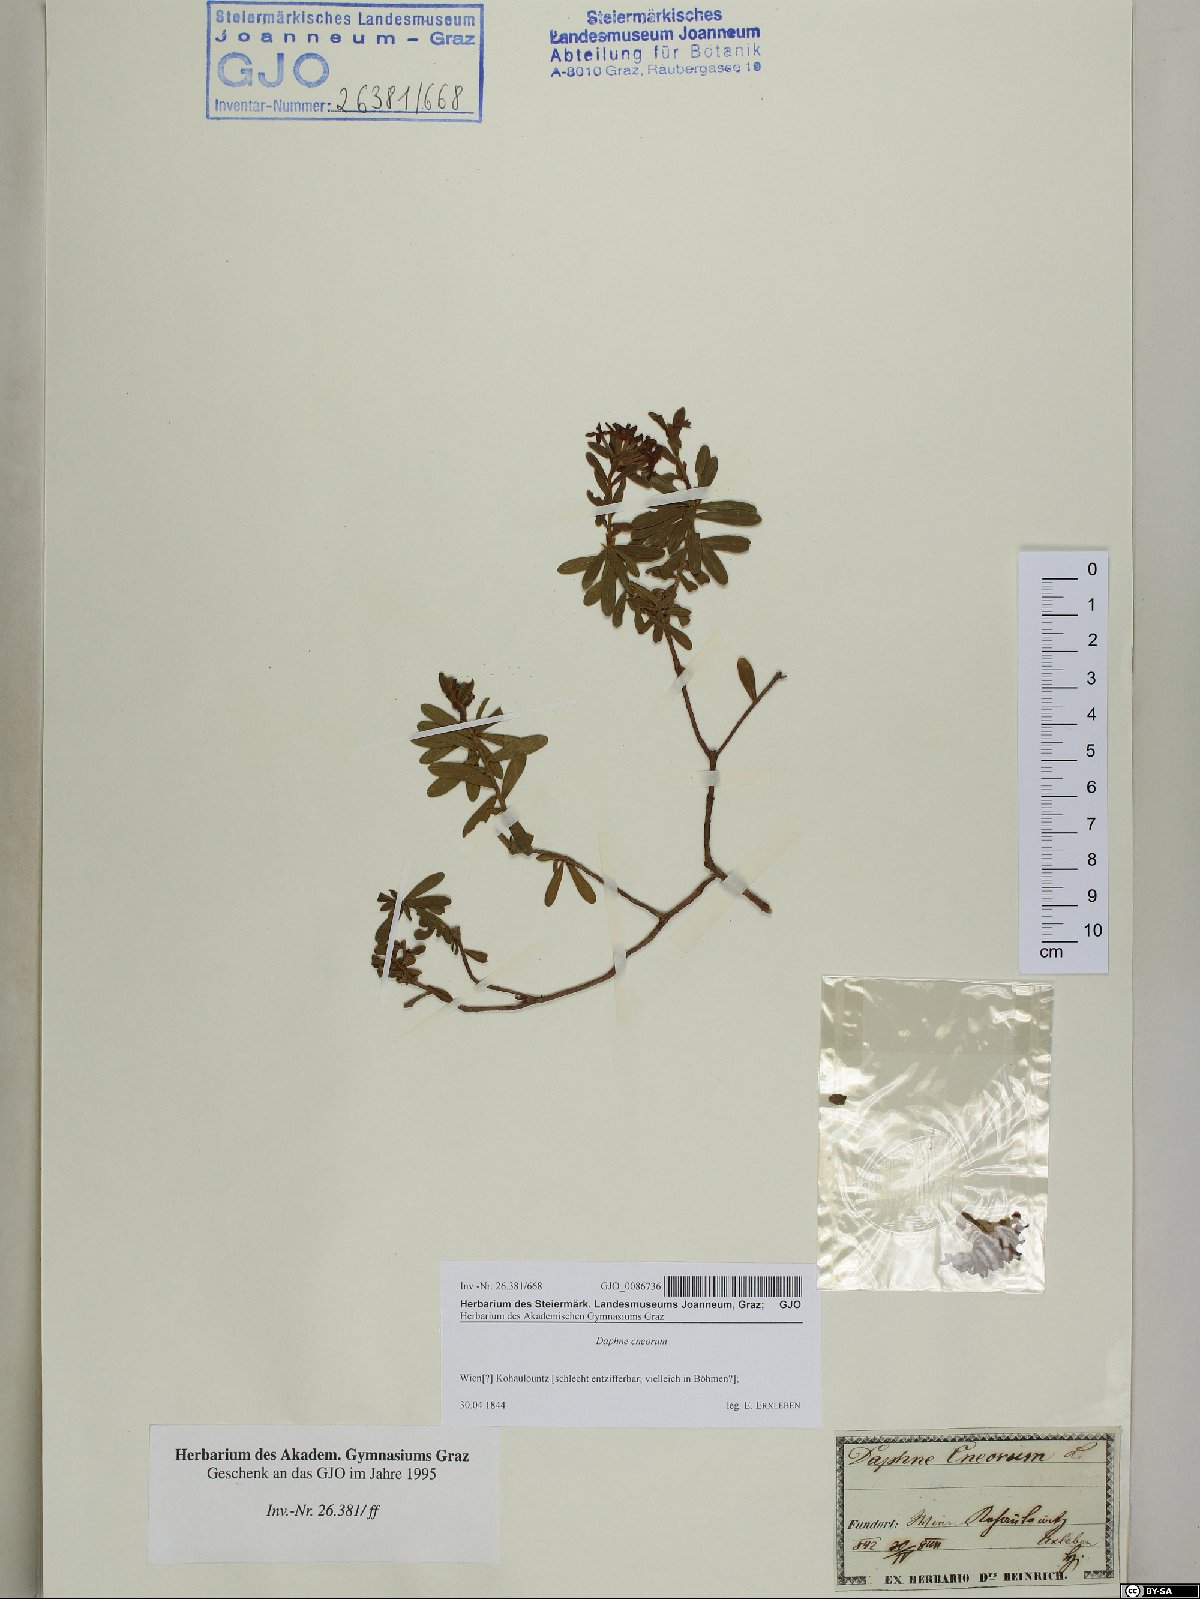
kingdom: Plantae
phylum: Tracheophyta
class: Magnoliopsida
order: Malvales
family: Thymelaeaceae
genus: Daphne
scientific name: Daphne cneorum
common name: Garland-flower
